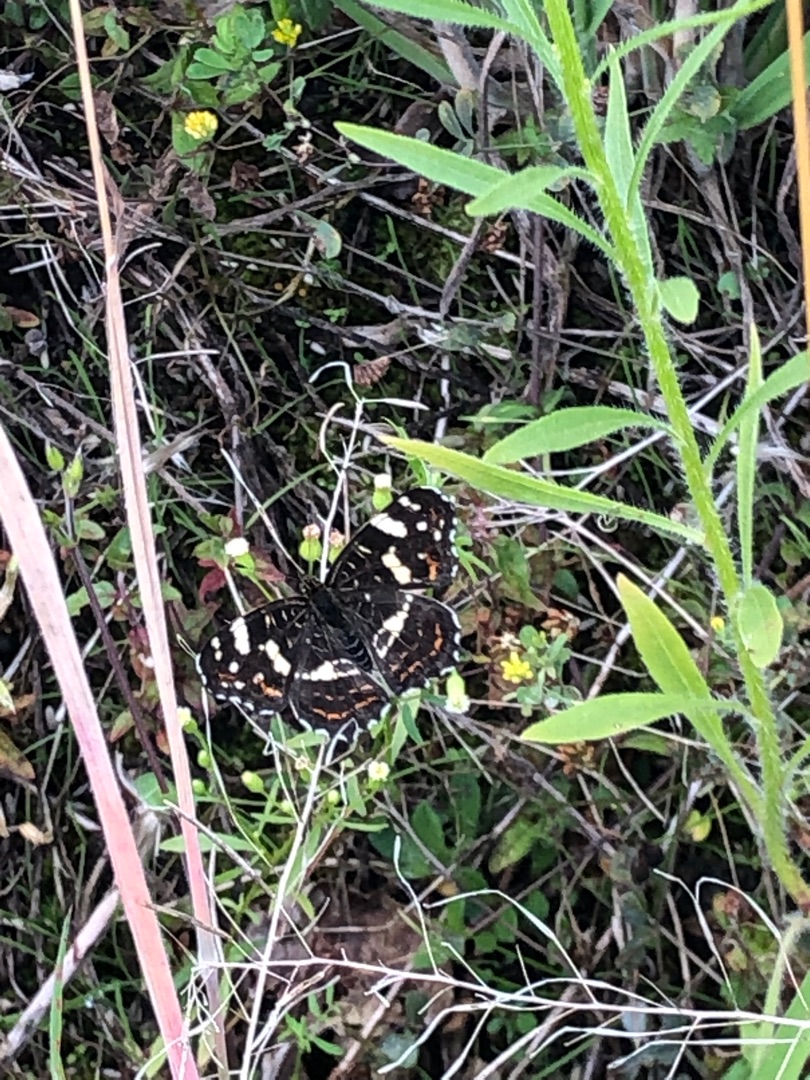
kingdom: Animalia
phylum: Arthropoda
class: Insecta
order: Lepidoptera
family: Nymphalidae
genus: Araschnia
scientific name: Araschnia levana
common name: Nældesommerfugl
